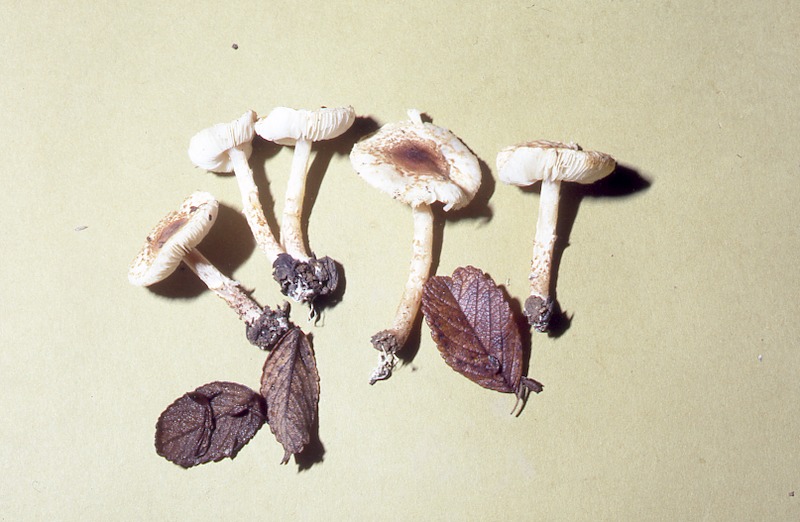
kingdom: Fungi
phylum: Basidiomycota
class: Agaricomycetes
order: Agaricales
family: Agaricaceae
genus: Lepiota
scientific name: Lepiota echinella
